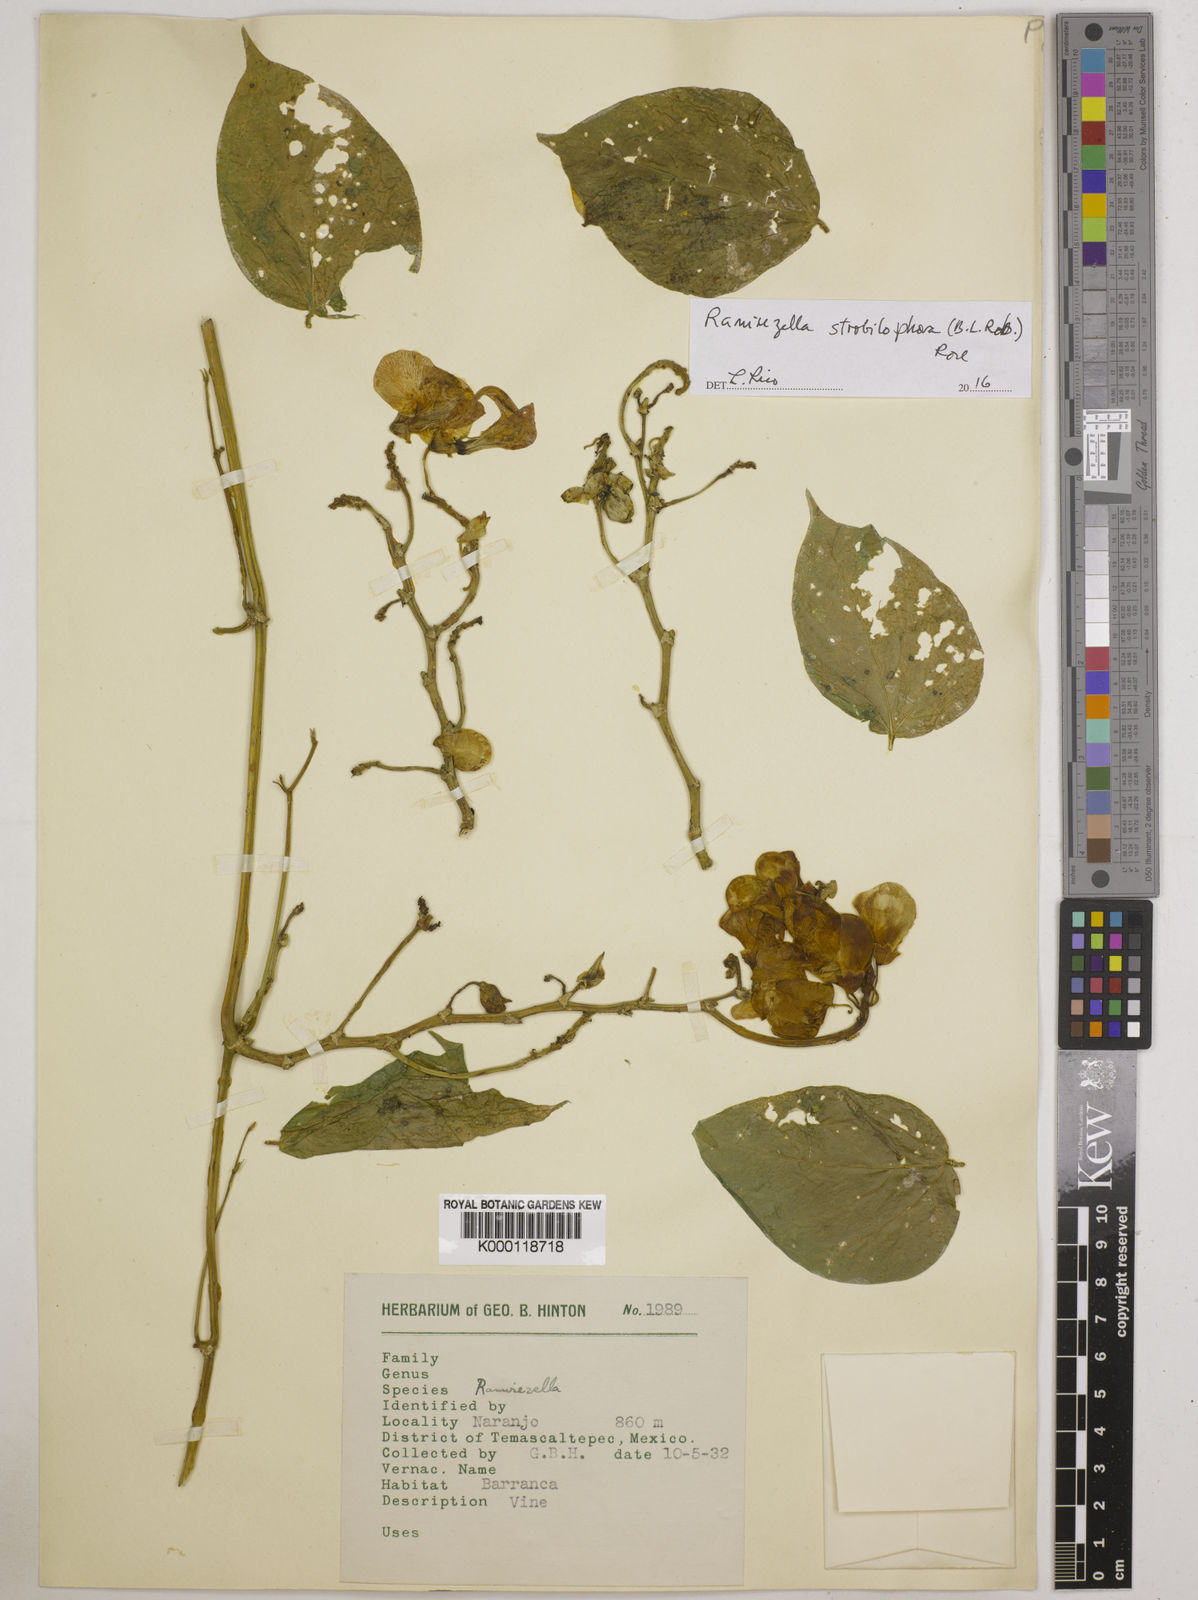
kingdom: Plantae
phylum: Tracheophyta
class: Magnoliopsida
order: Fabales
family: Fabaceae
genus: Ramirezella
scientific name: Ramirezella strobilophora
